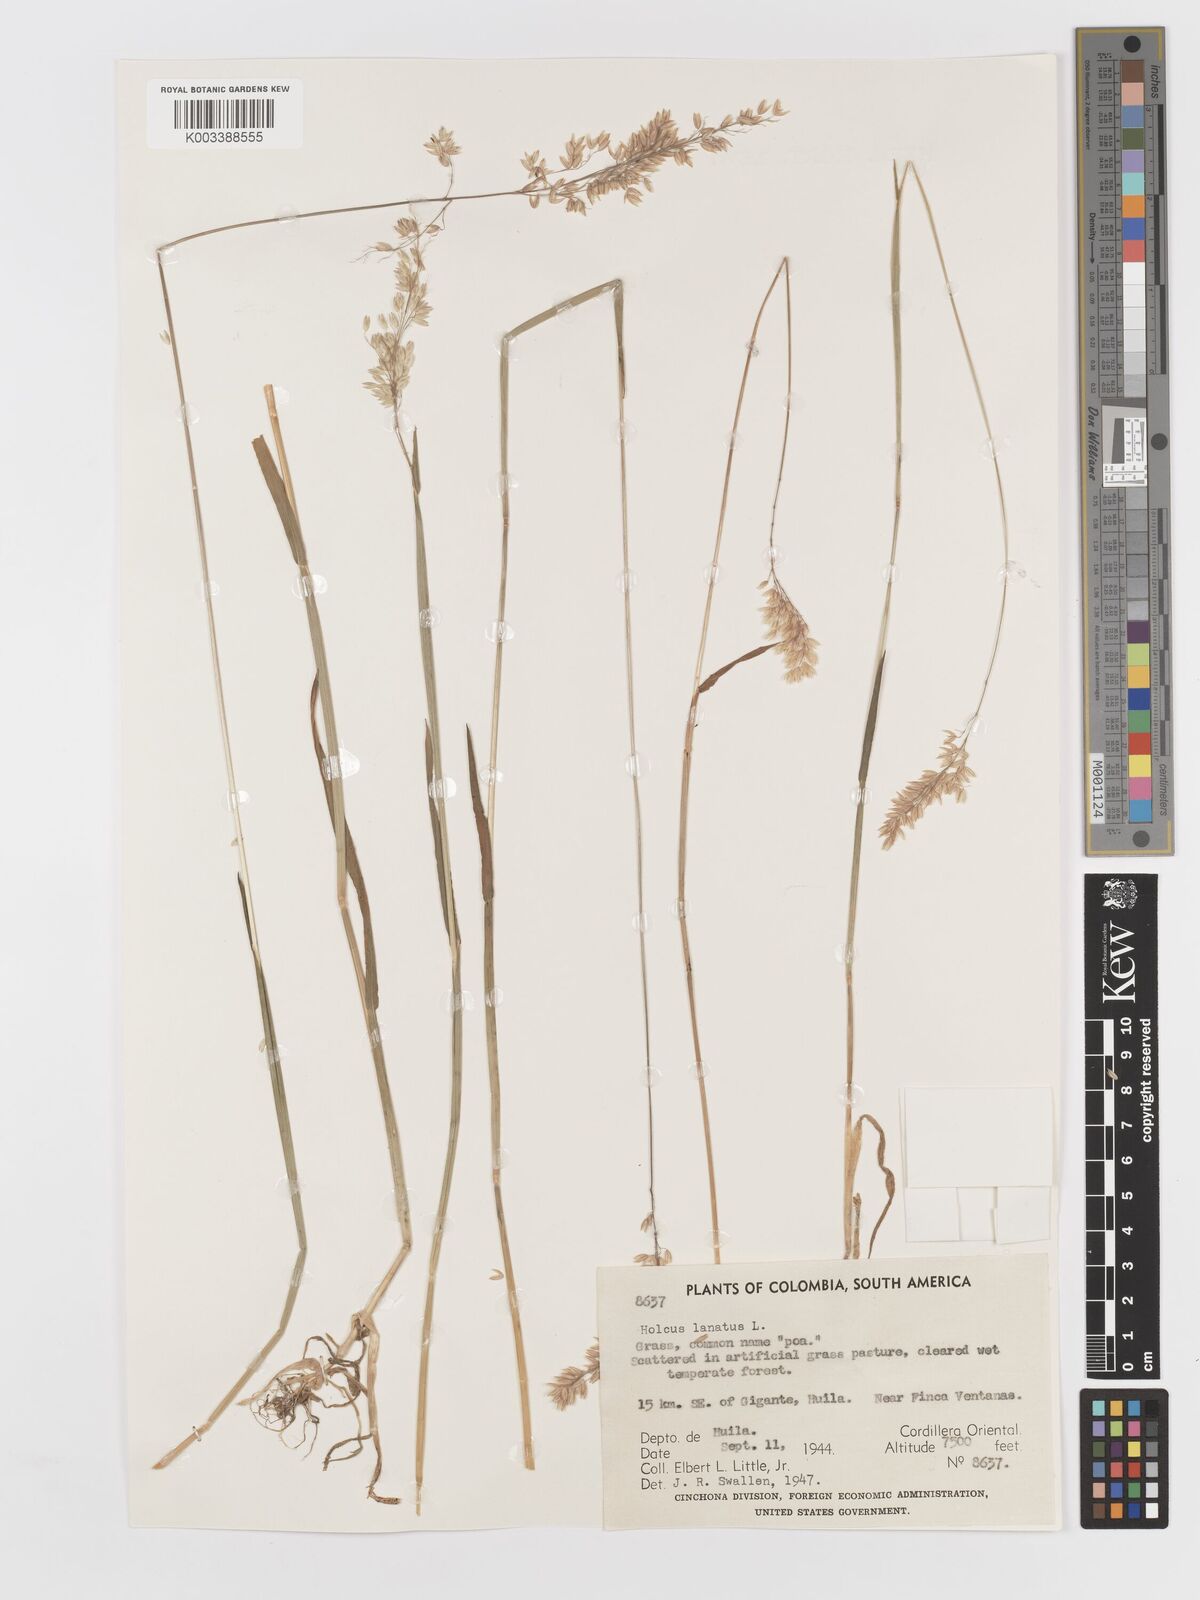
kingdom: Plantae
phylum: Tracheophyta
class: Liliopsida
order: Poales
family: Poaceae
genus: Holcus
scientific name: Holcus lanatus
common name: Yorkshire-fog
